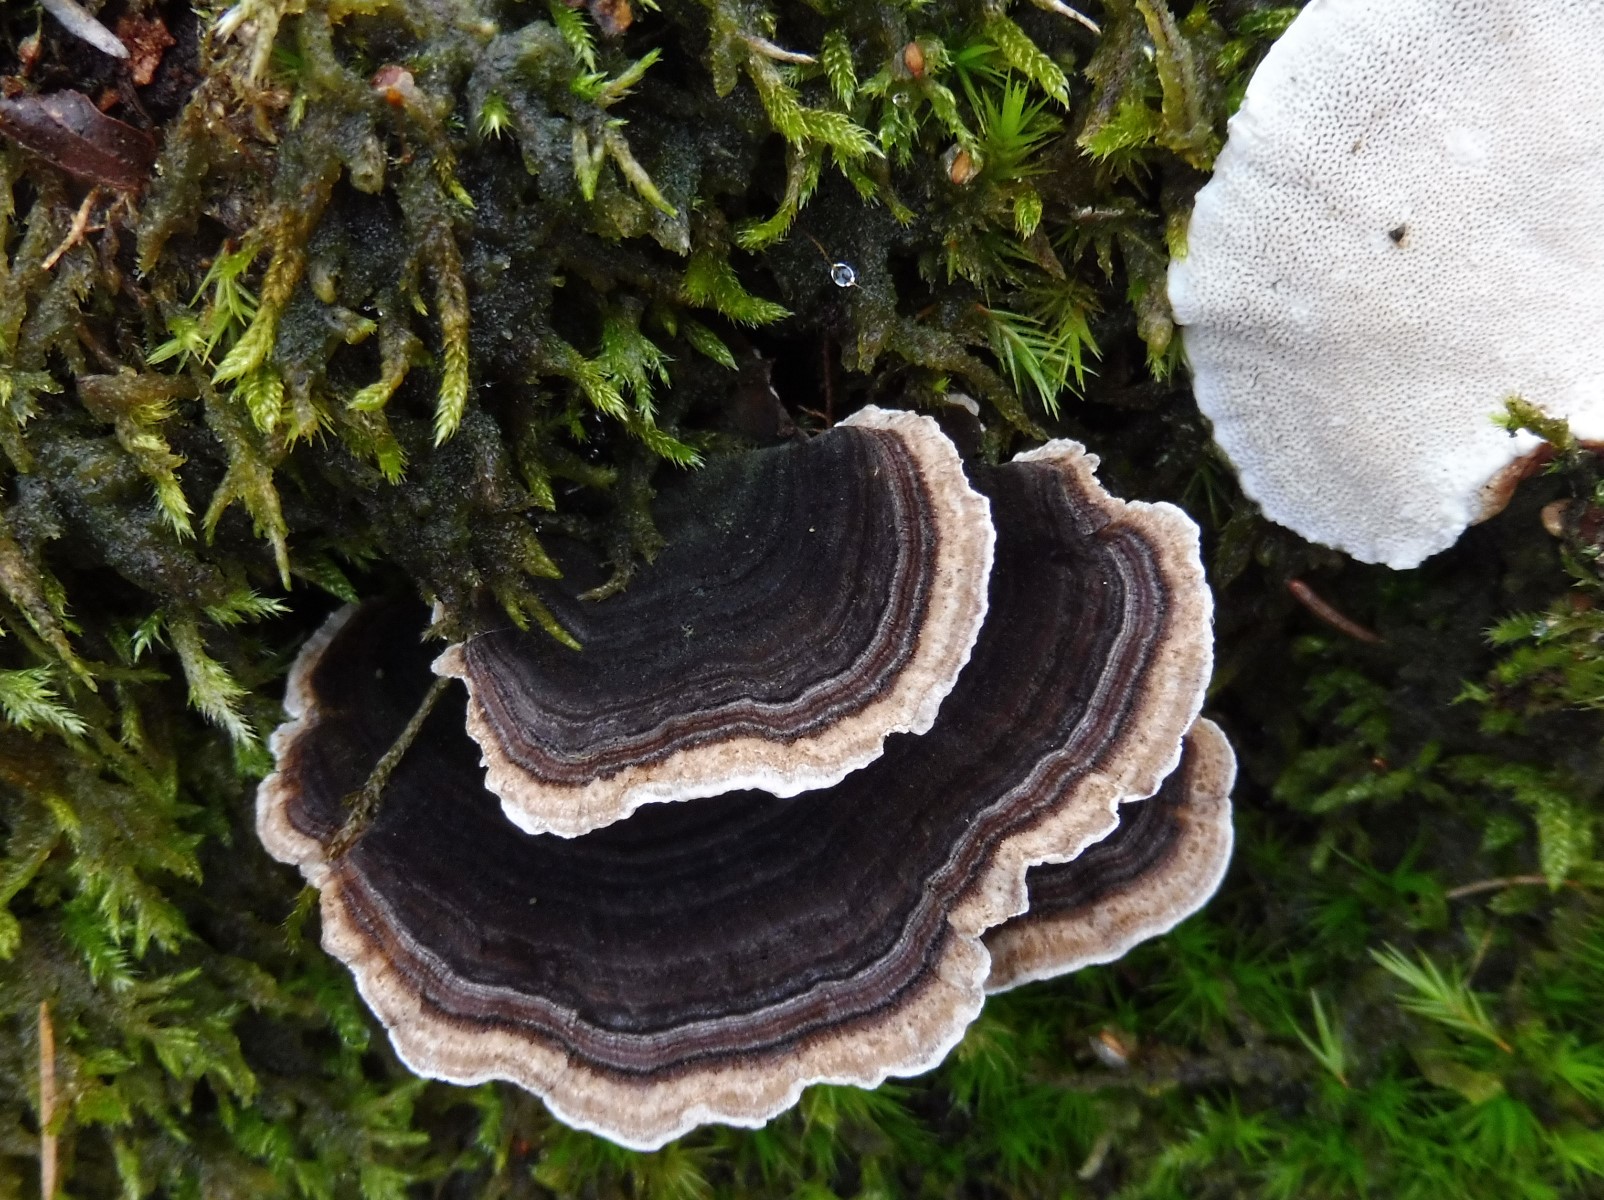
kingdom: Fungi
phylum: Basidiomycota
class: Agaricomycetes
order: Polyporales
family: Polyporaceae
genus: Trametes
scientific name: Trametes versicolor
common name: broget læderporesvamp
